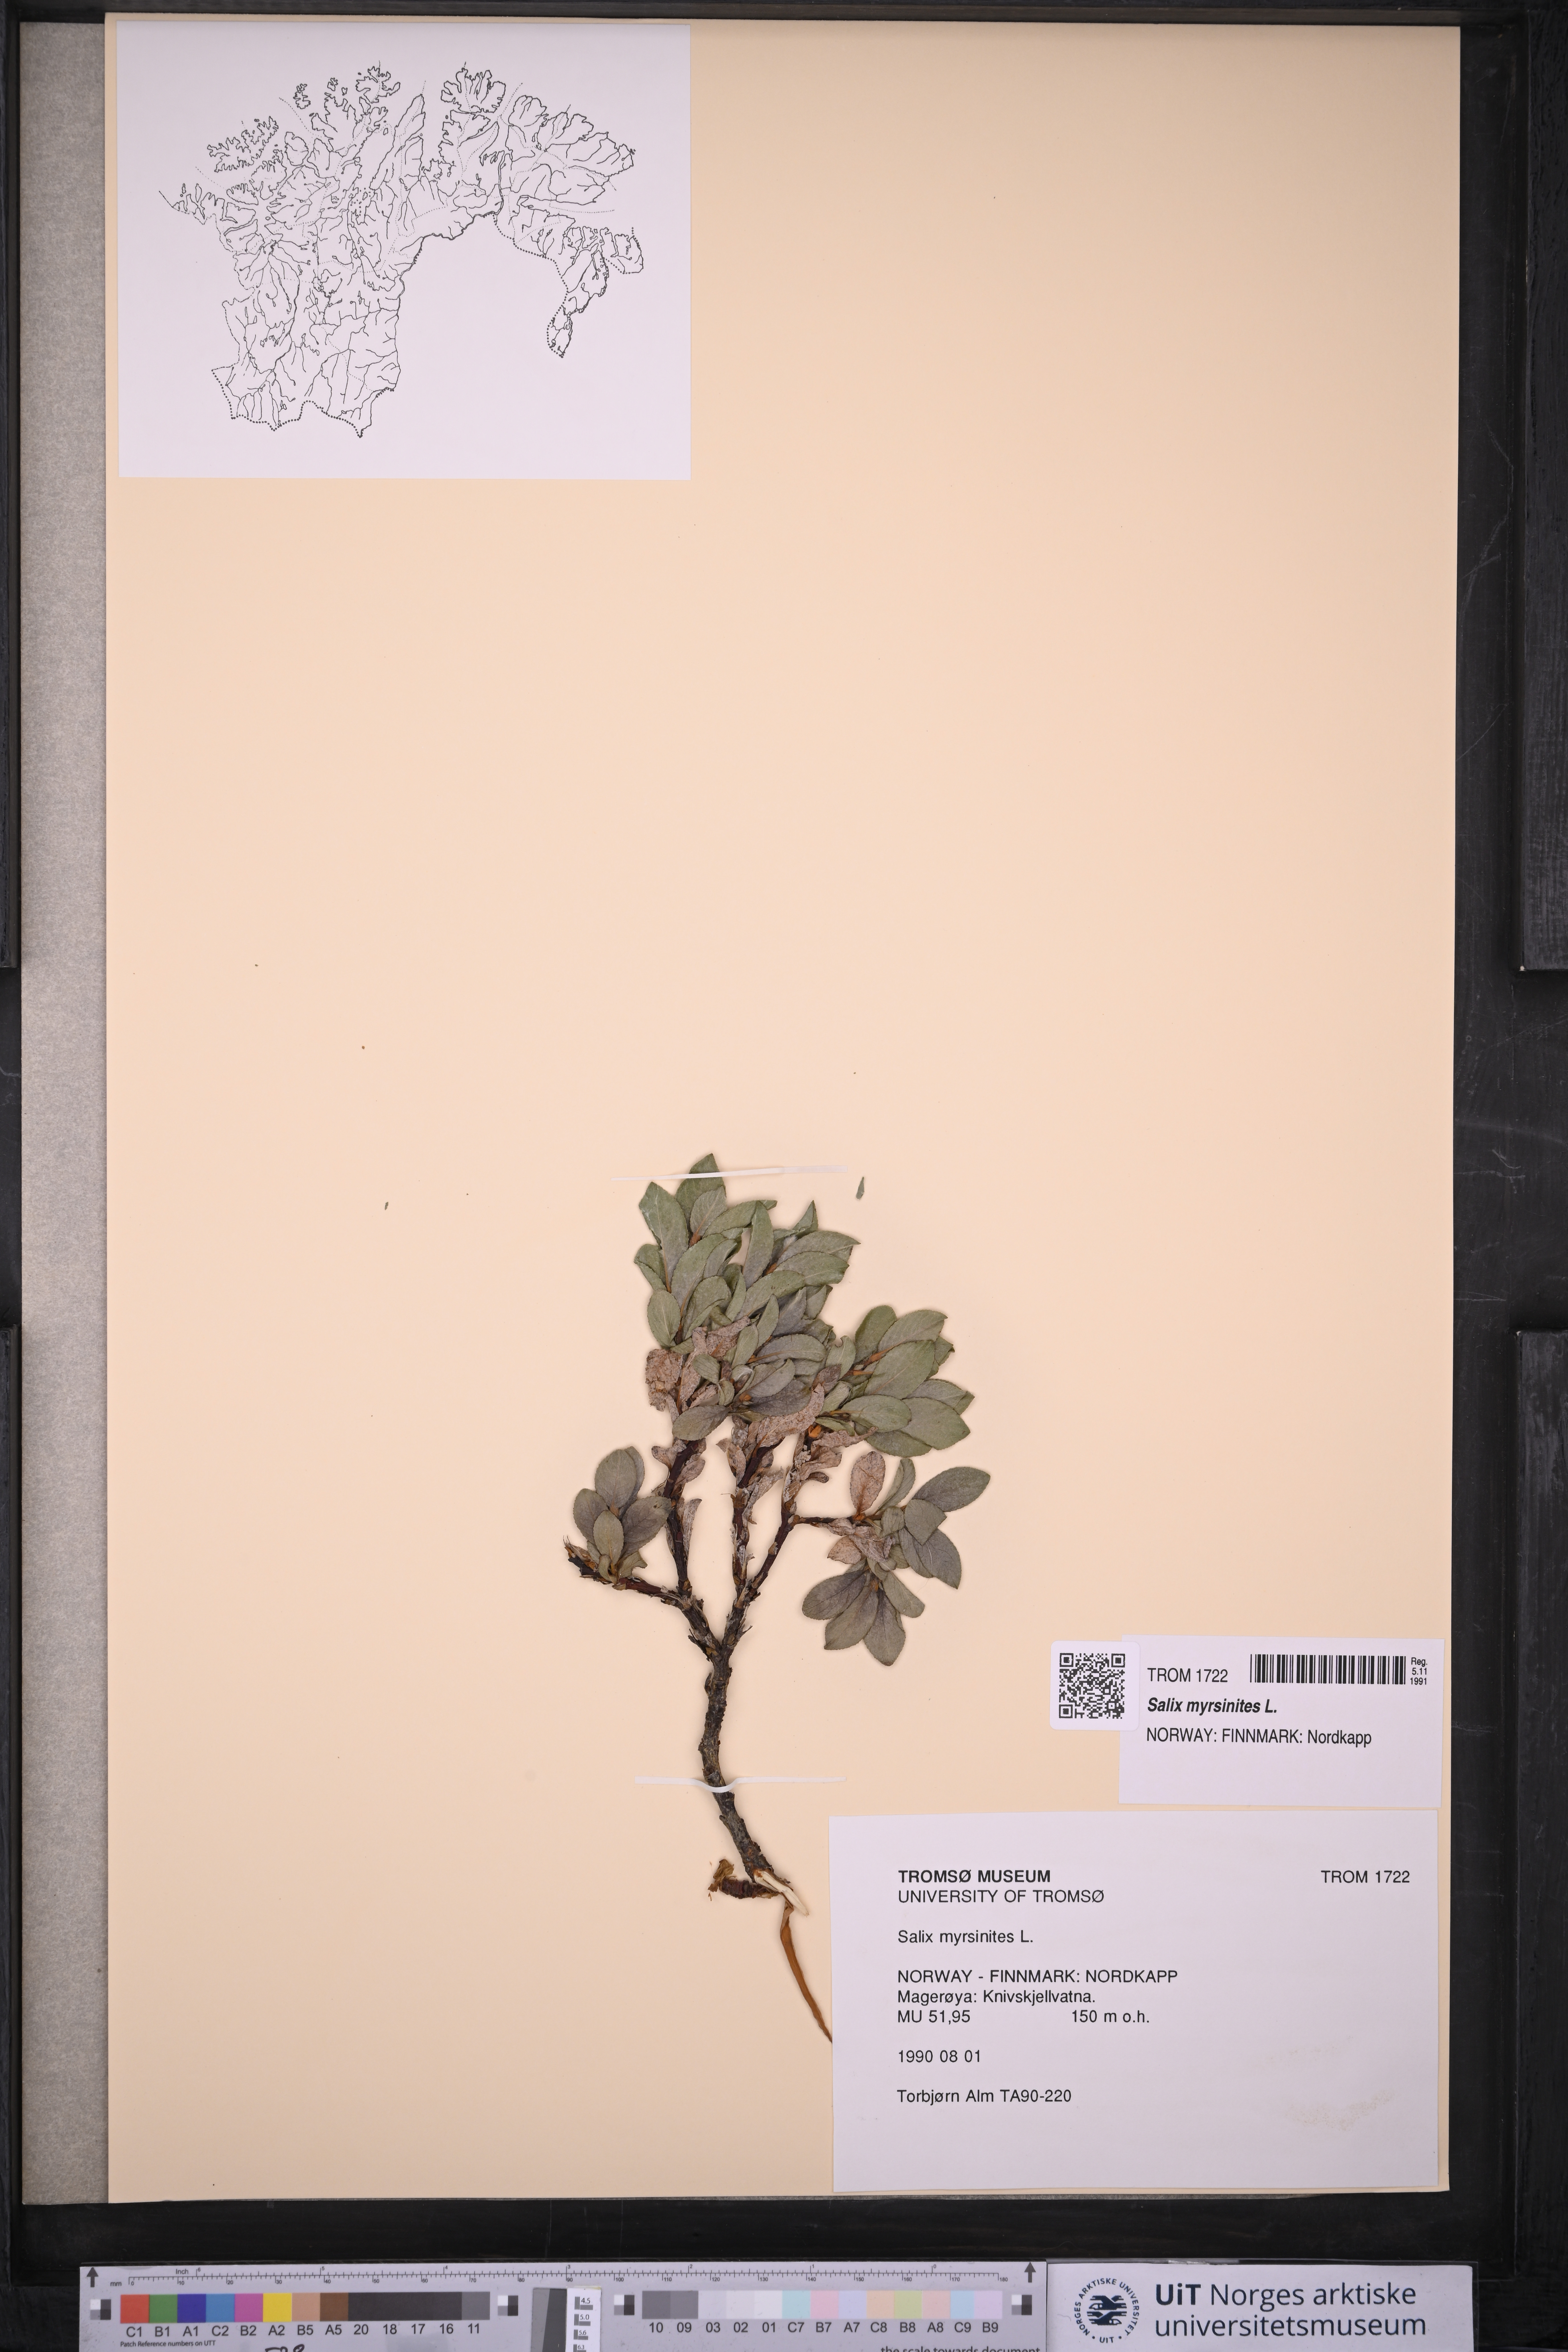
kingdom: Plantae
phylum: Tracheophyta
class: Magnoliopsida
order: Malpighiales
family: Salicaceae
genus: Salix
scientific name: Salix myrsinites
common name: Myrtle willow
